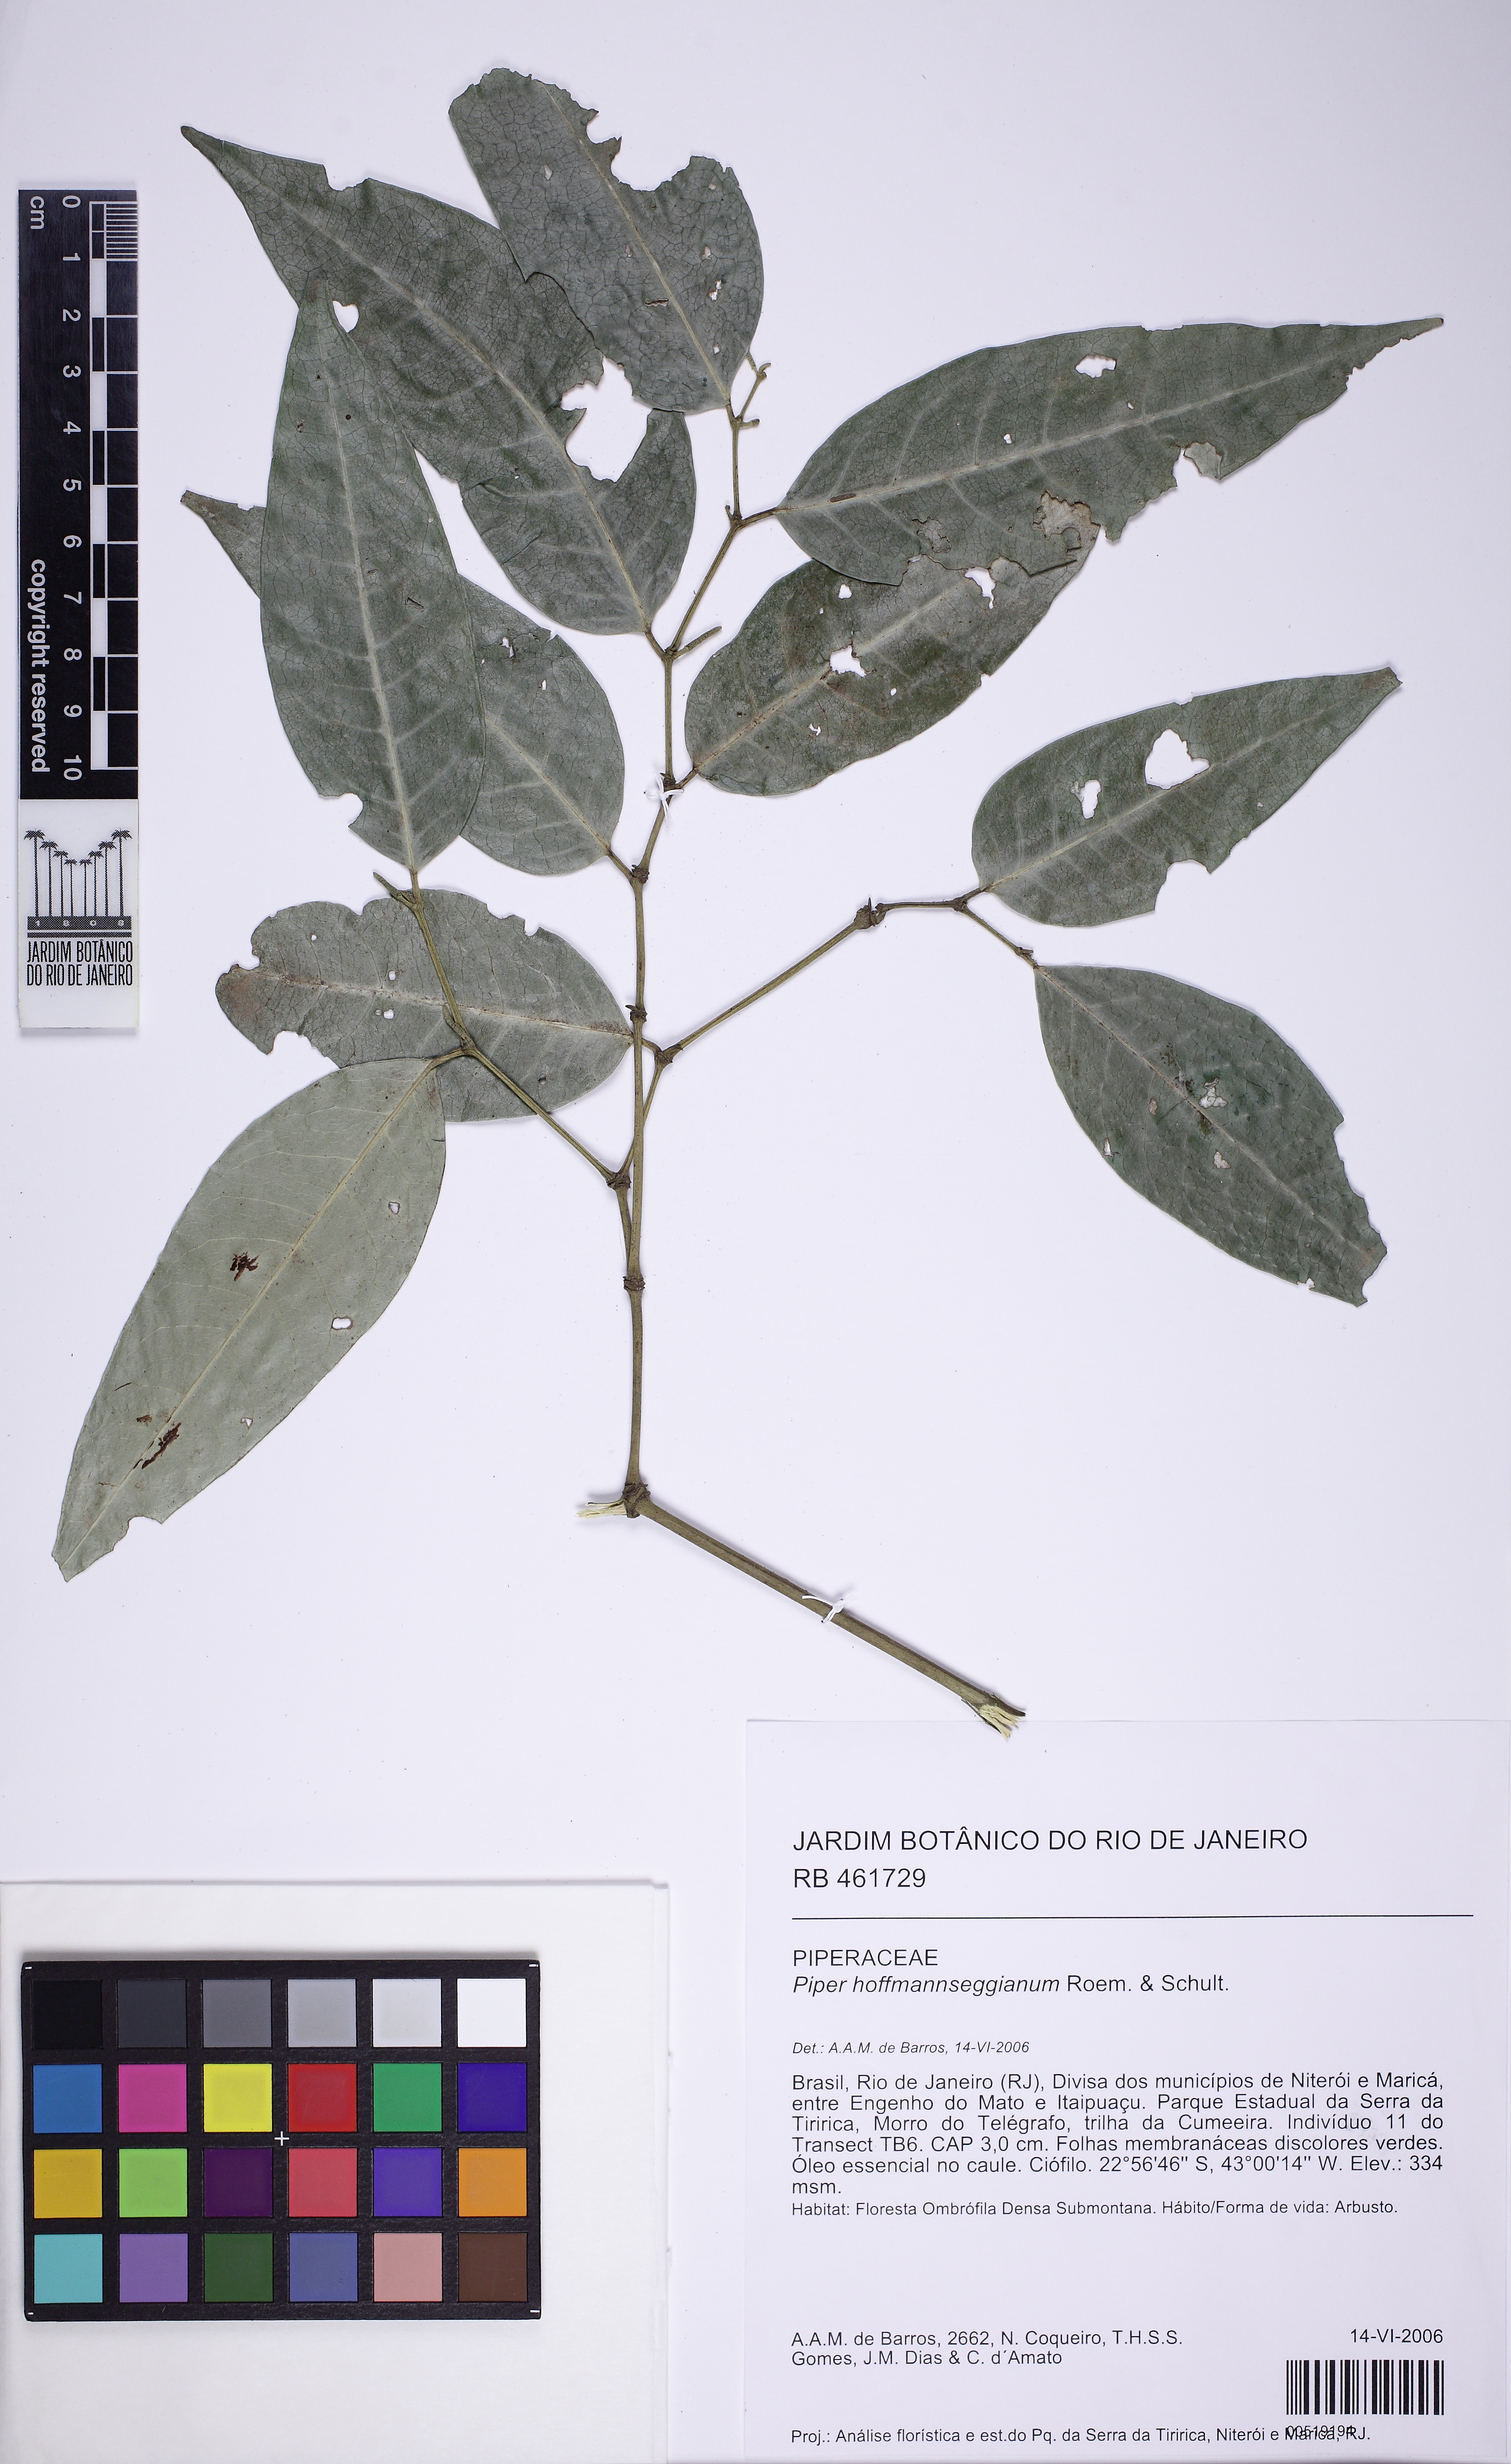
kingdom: Plantae
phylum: Tracheophyta
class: Magnoliopsida
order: Piperales
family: Piperaceae
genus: Piper
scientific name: Piper hoffmannseggianum
